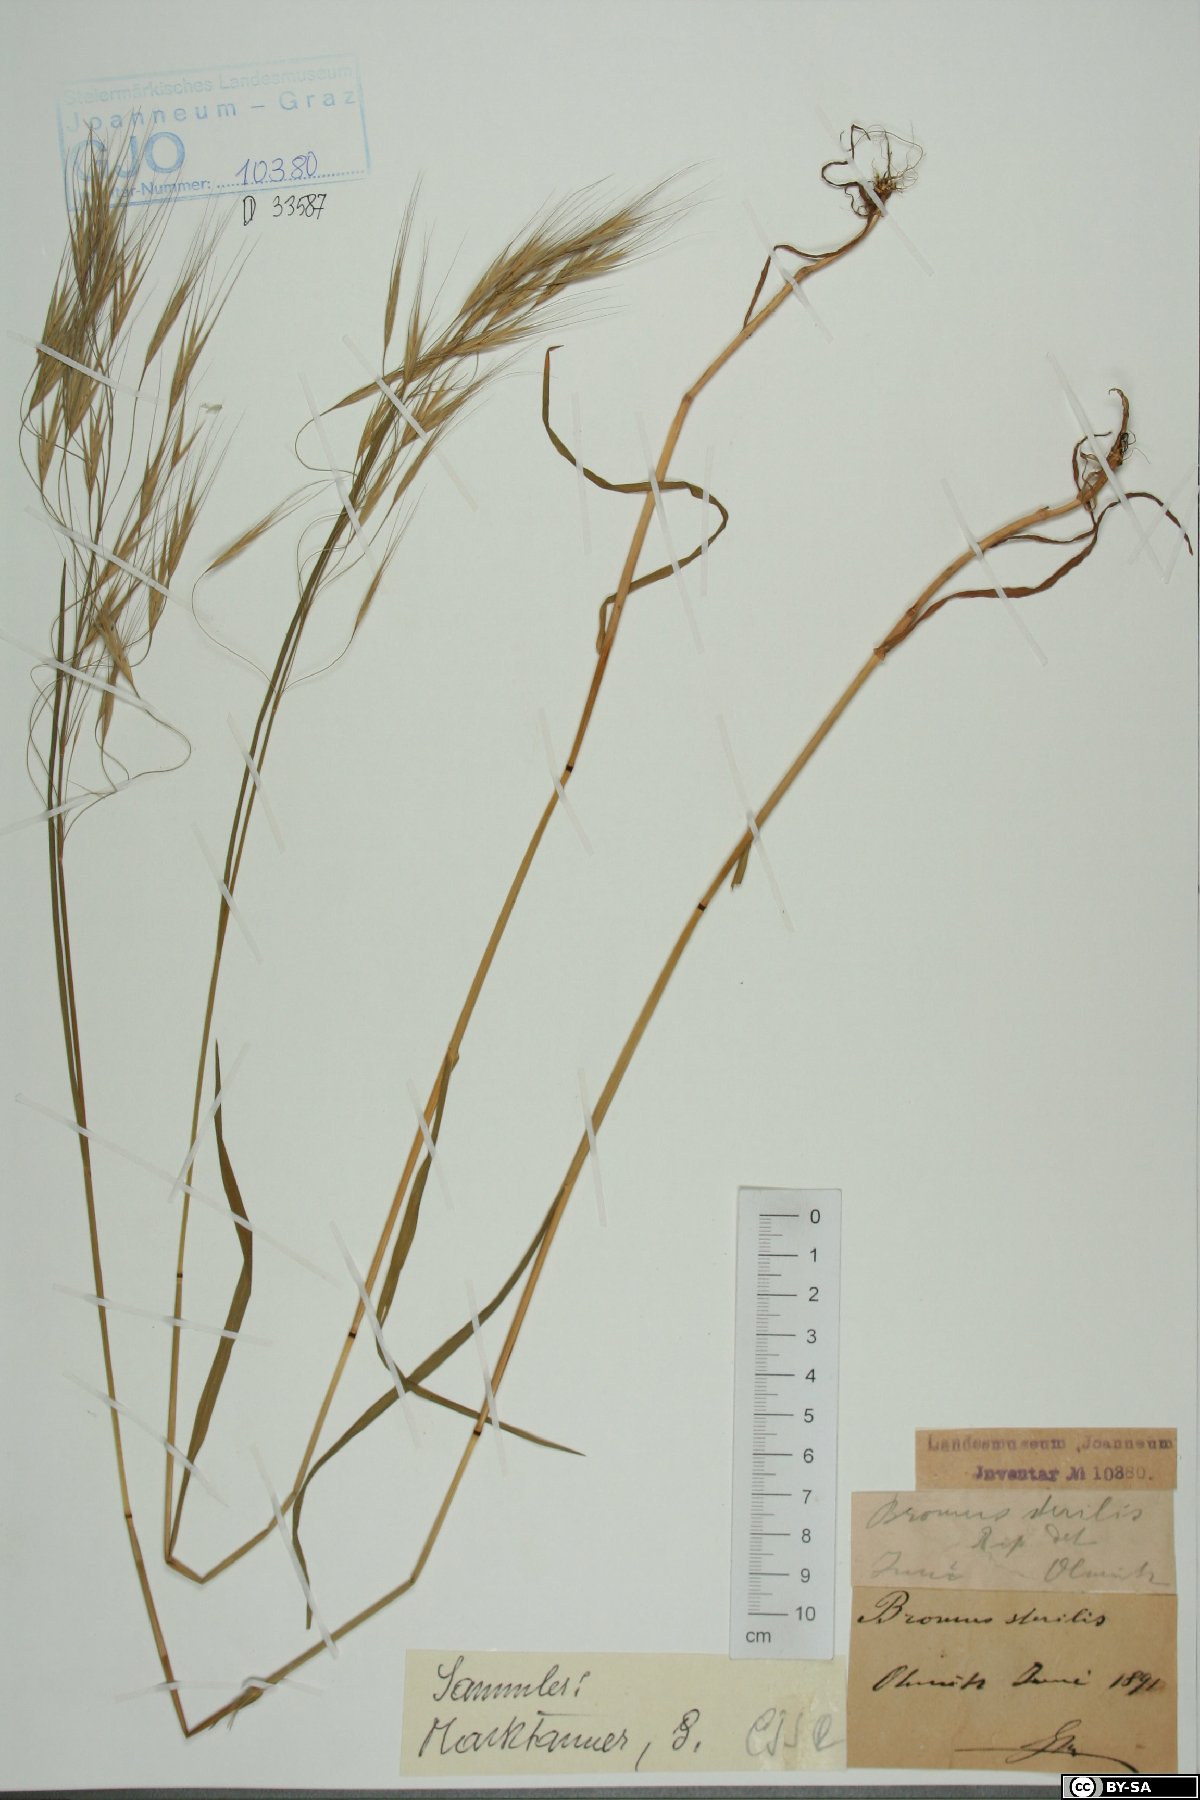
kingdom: Plantae
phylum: Tracheophyta
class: Liliopsida
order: Poales
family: Poaceae
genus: Bromus
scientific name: Bromus sterilis
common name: Poverty brome
